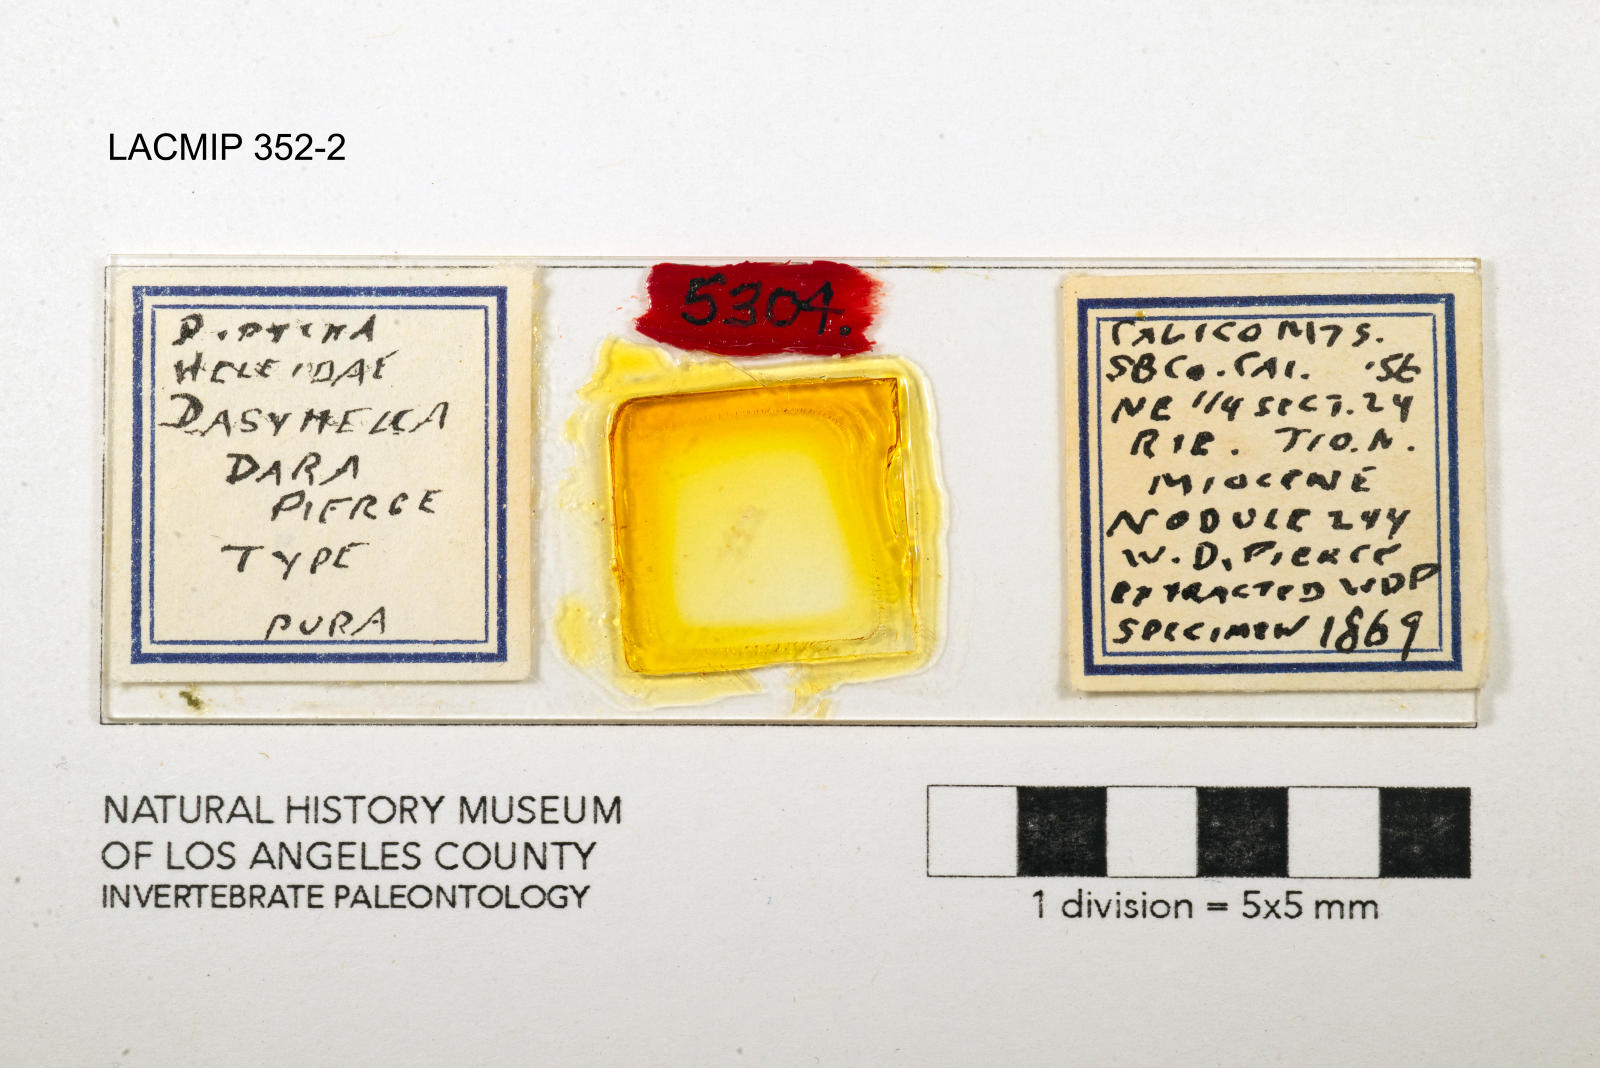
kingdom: Animalia
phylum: Arthropoda
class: Insecta
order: Diptera
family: Ceratopogonidae
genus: Dasyhelea
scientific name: Dasyhelea dara
